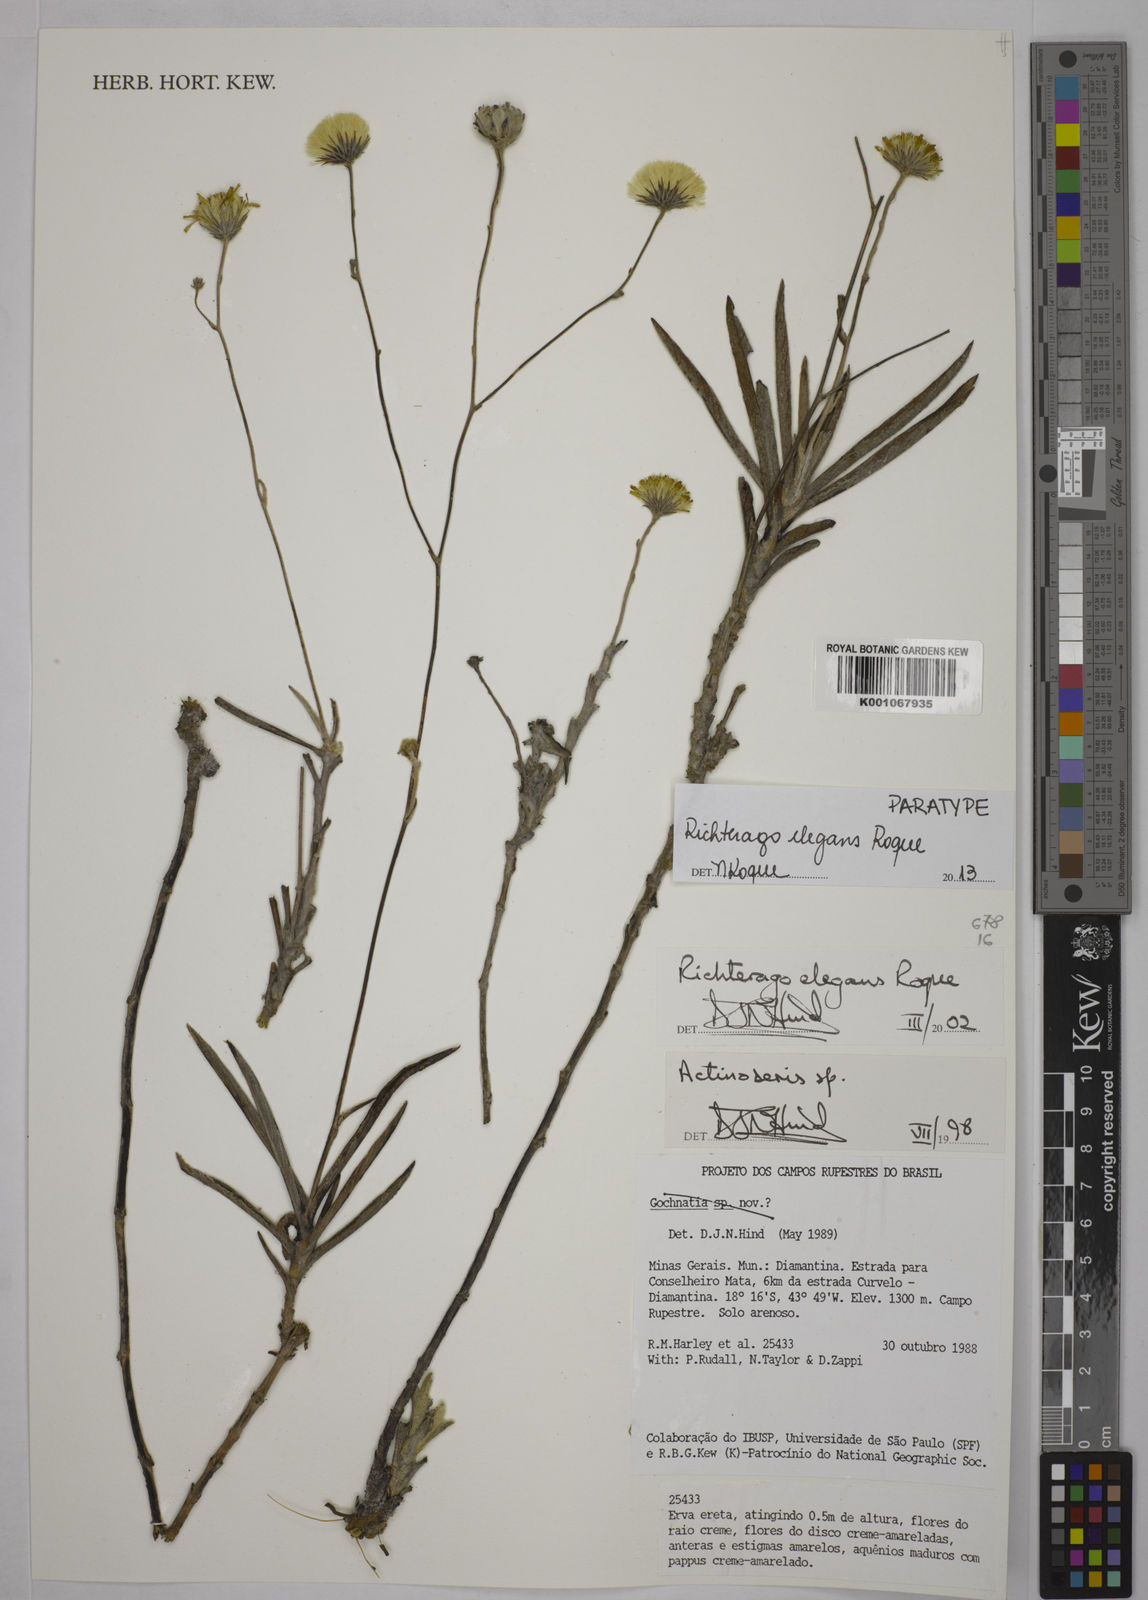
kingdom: Plantae
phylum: Tracheophyta
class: Magnoliopsida
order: Asterales
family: Asteraceae
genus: Richterago
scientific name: Richterago elegans
